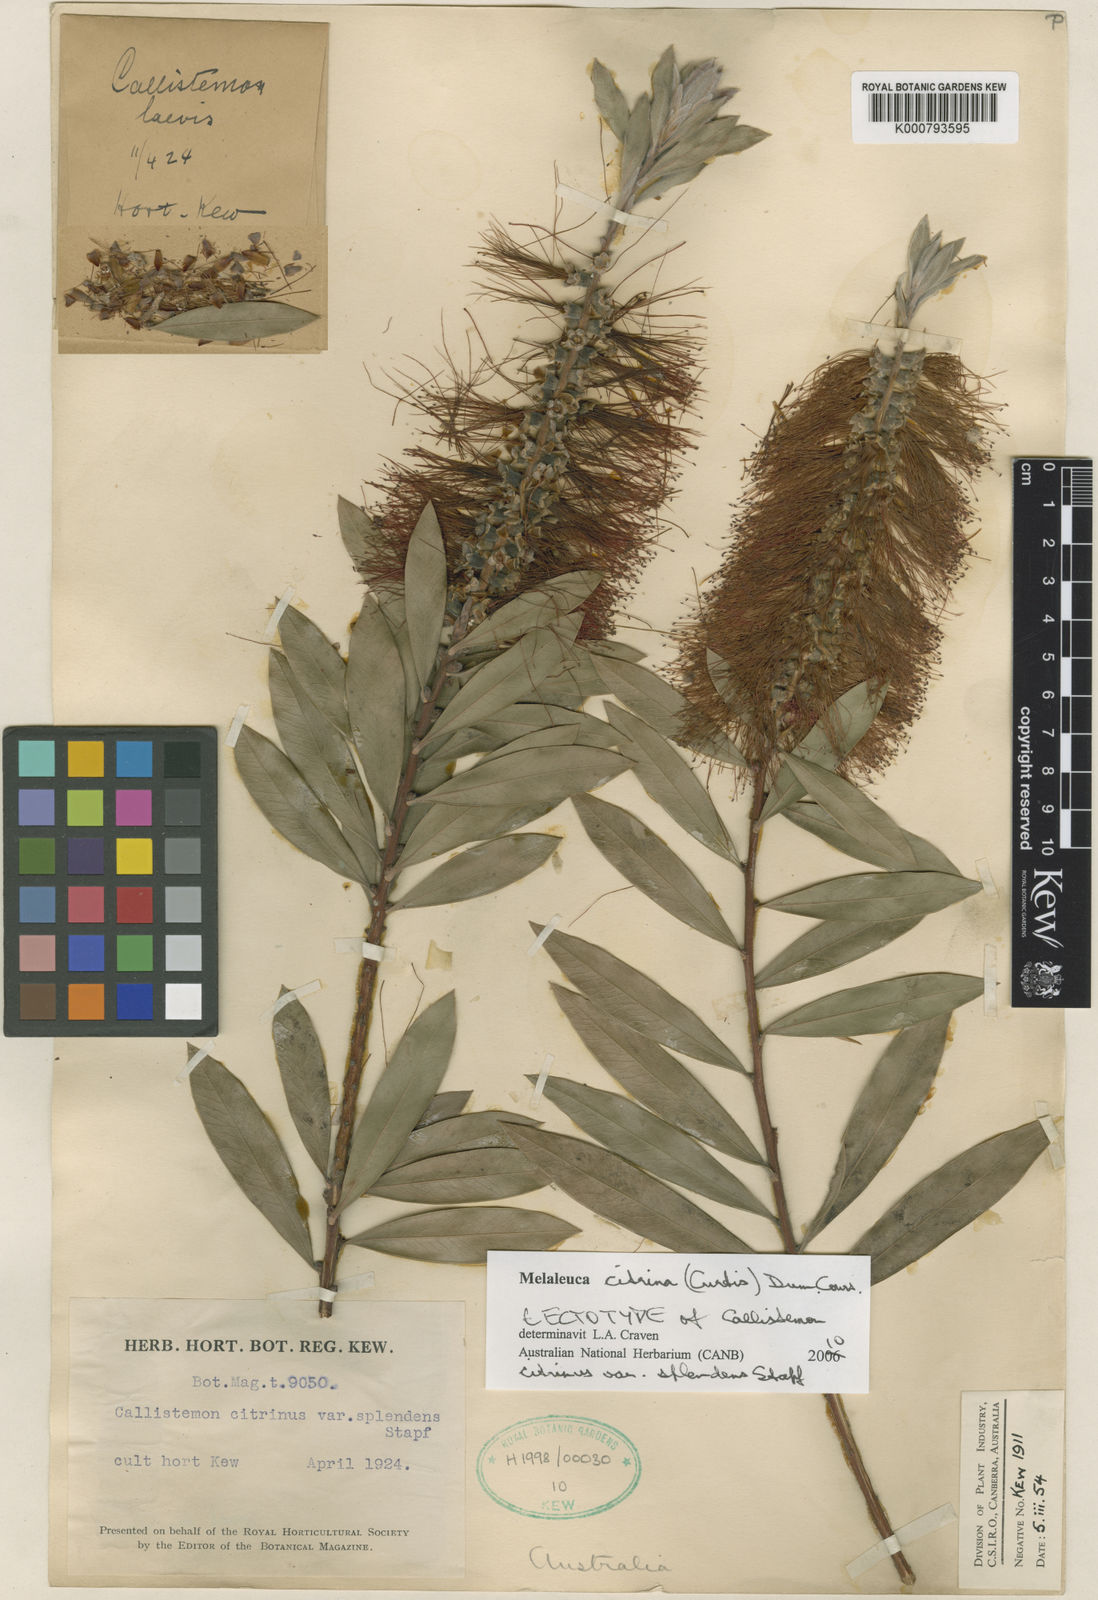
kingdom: Plantae
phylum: Tracheophyta
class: Magnoliopsida
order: Myrtales
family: Myrtaceae
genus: Callistemon
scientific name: Callistemon citrinus
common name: Crimson bottlebrush
